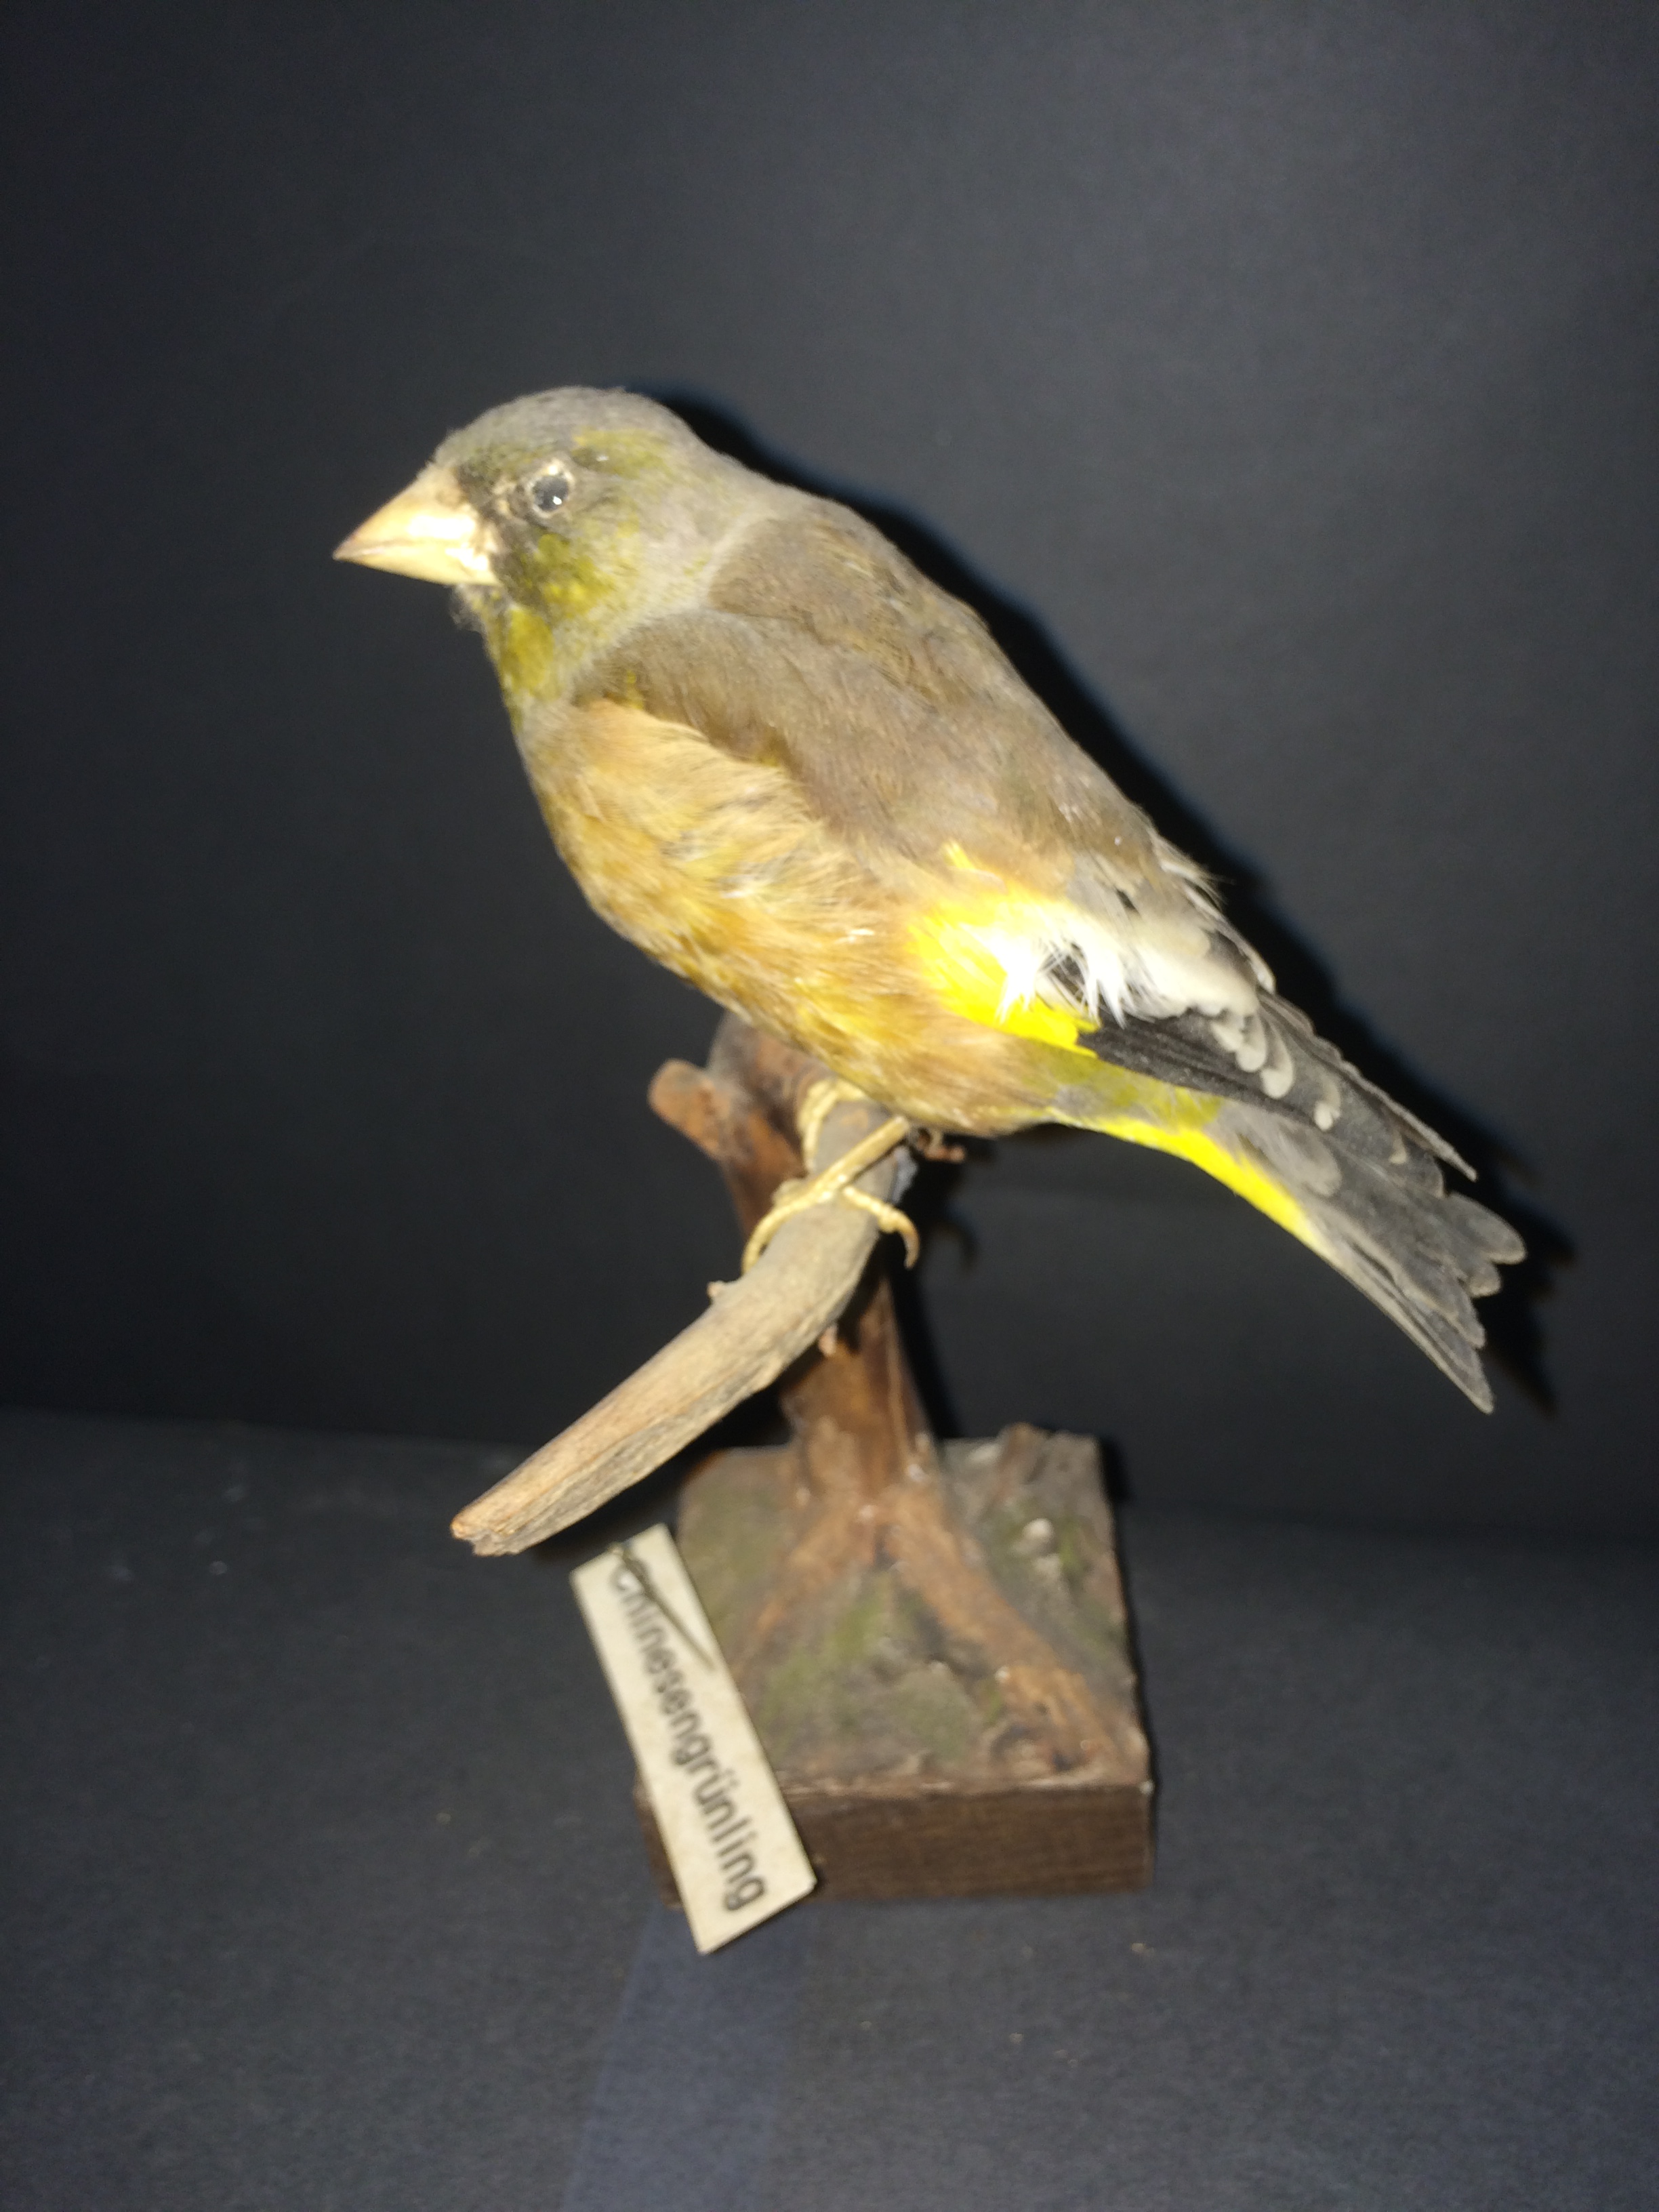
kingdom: Plantae
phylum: Tracheophyta
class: Liliopsida
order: Poales
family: Poaceae
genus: Chloris
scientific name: Chloris sinica
